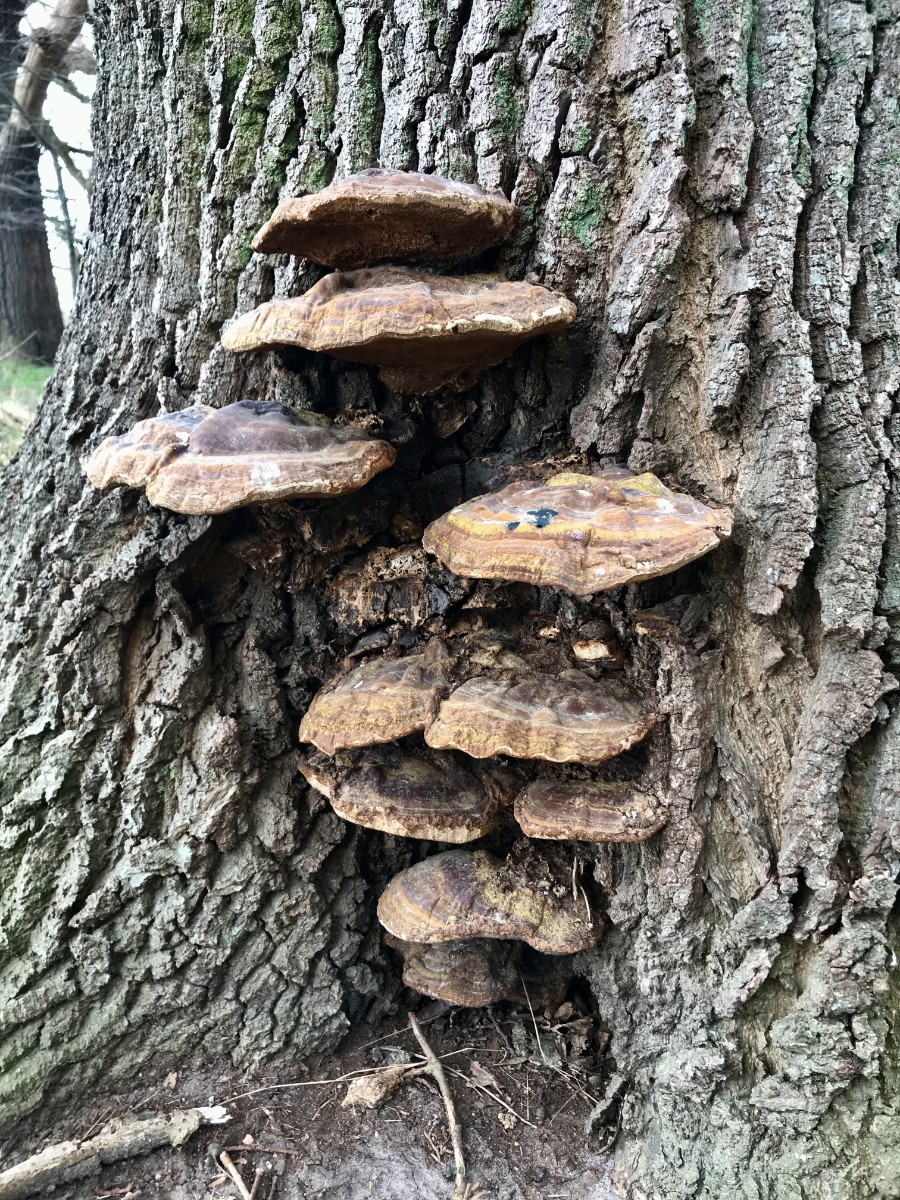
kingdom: Fungi
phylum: Basidiomycota
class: Agaricomycetes
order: Polyporales
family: Polyporaceae
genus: Ganoderma
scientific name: Ganoderma resinaceum
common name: gyldenbrun lakporesvamp
